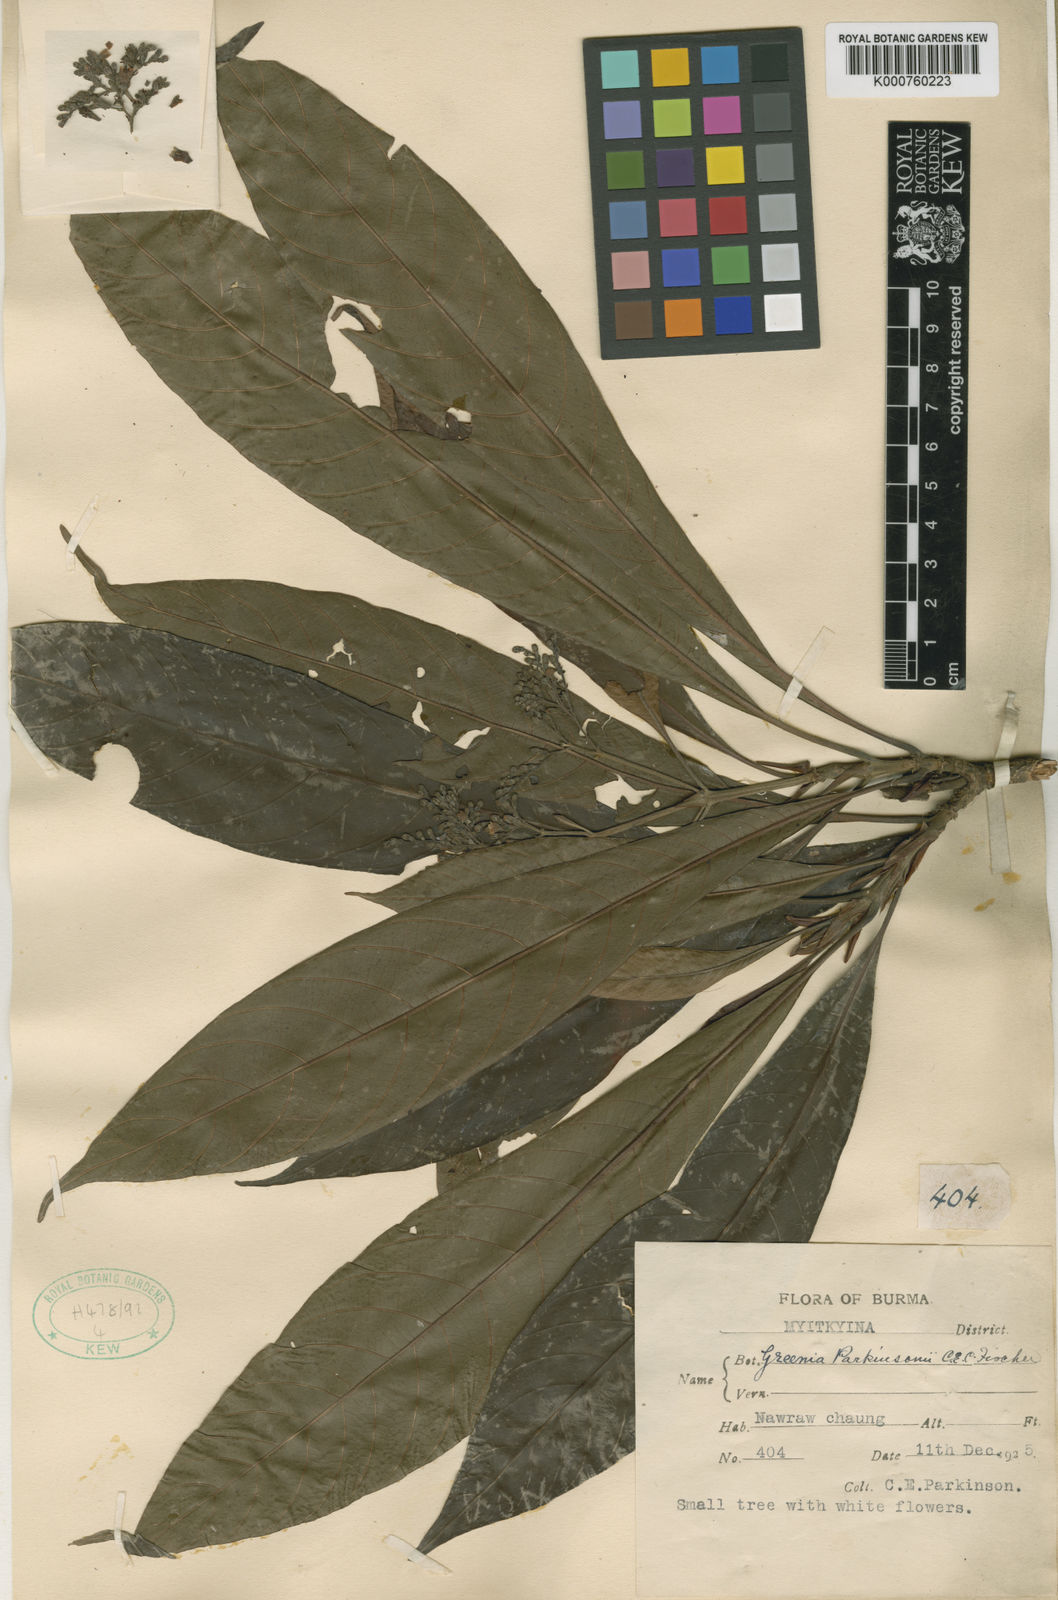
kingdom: Plantae
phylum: Tracheophyta
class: Magnoliopsida
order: Gentianales
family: Rubiaceae
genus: Greenea
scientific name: Greenea parkinsonii
